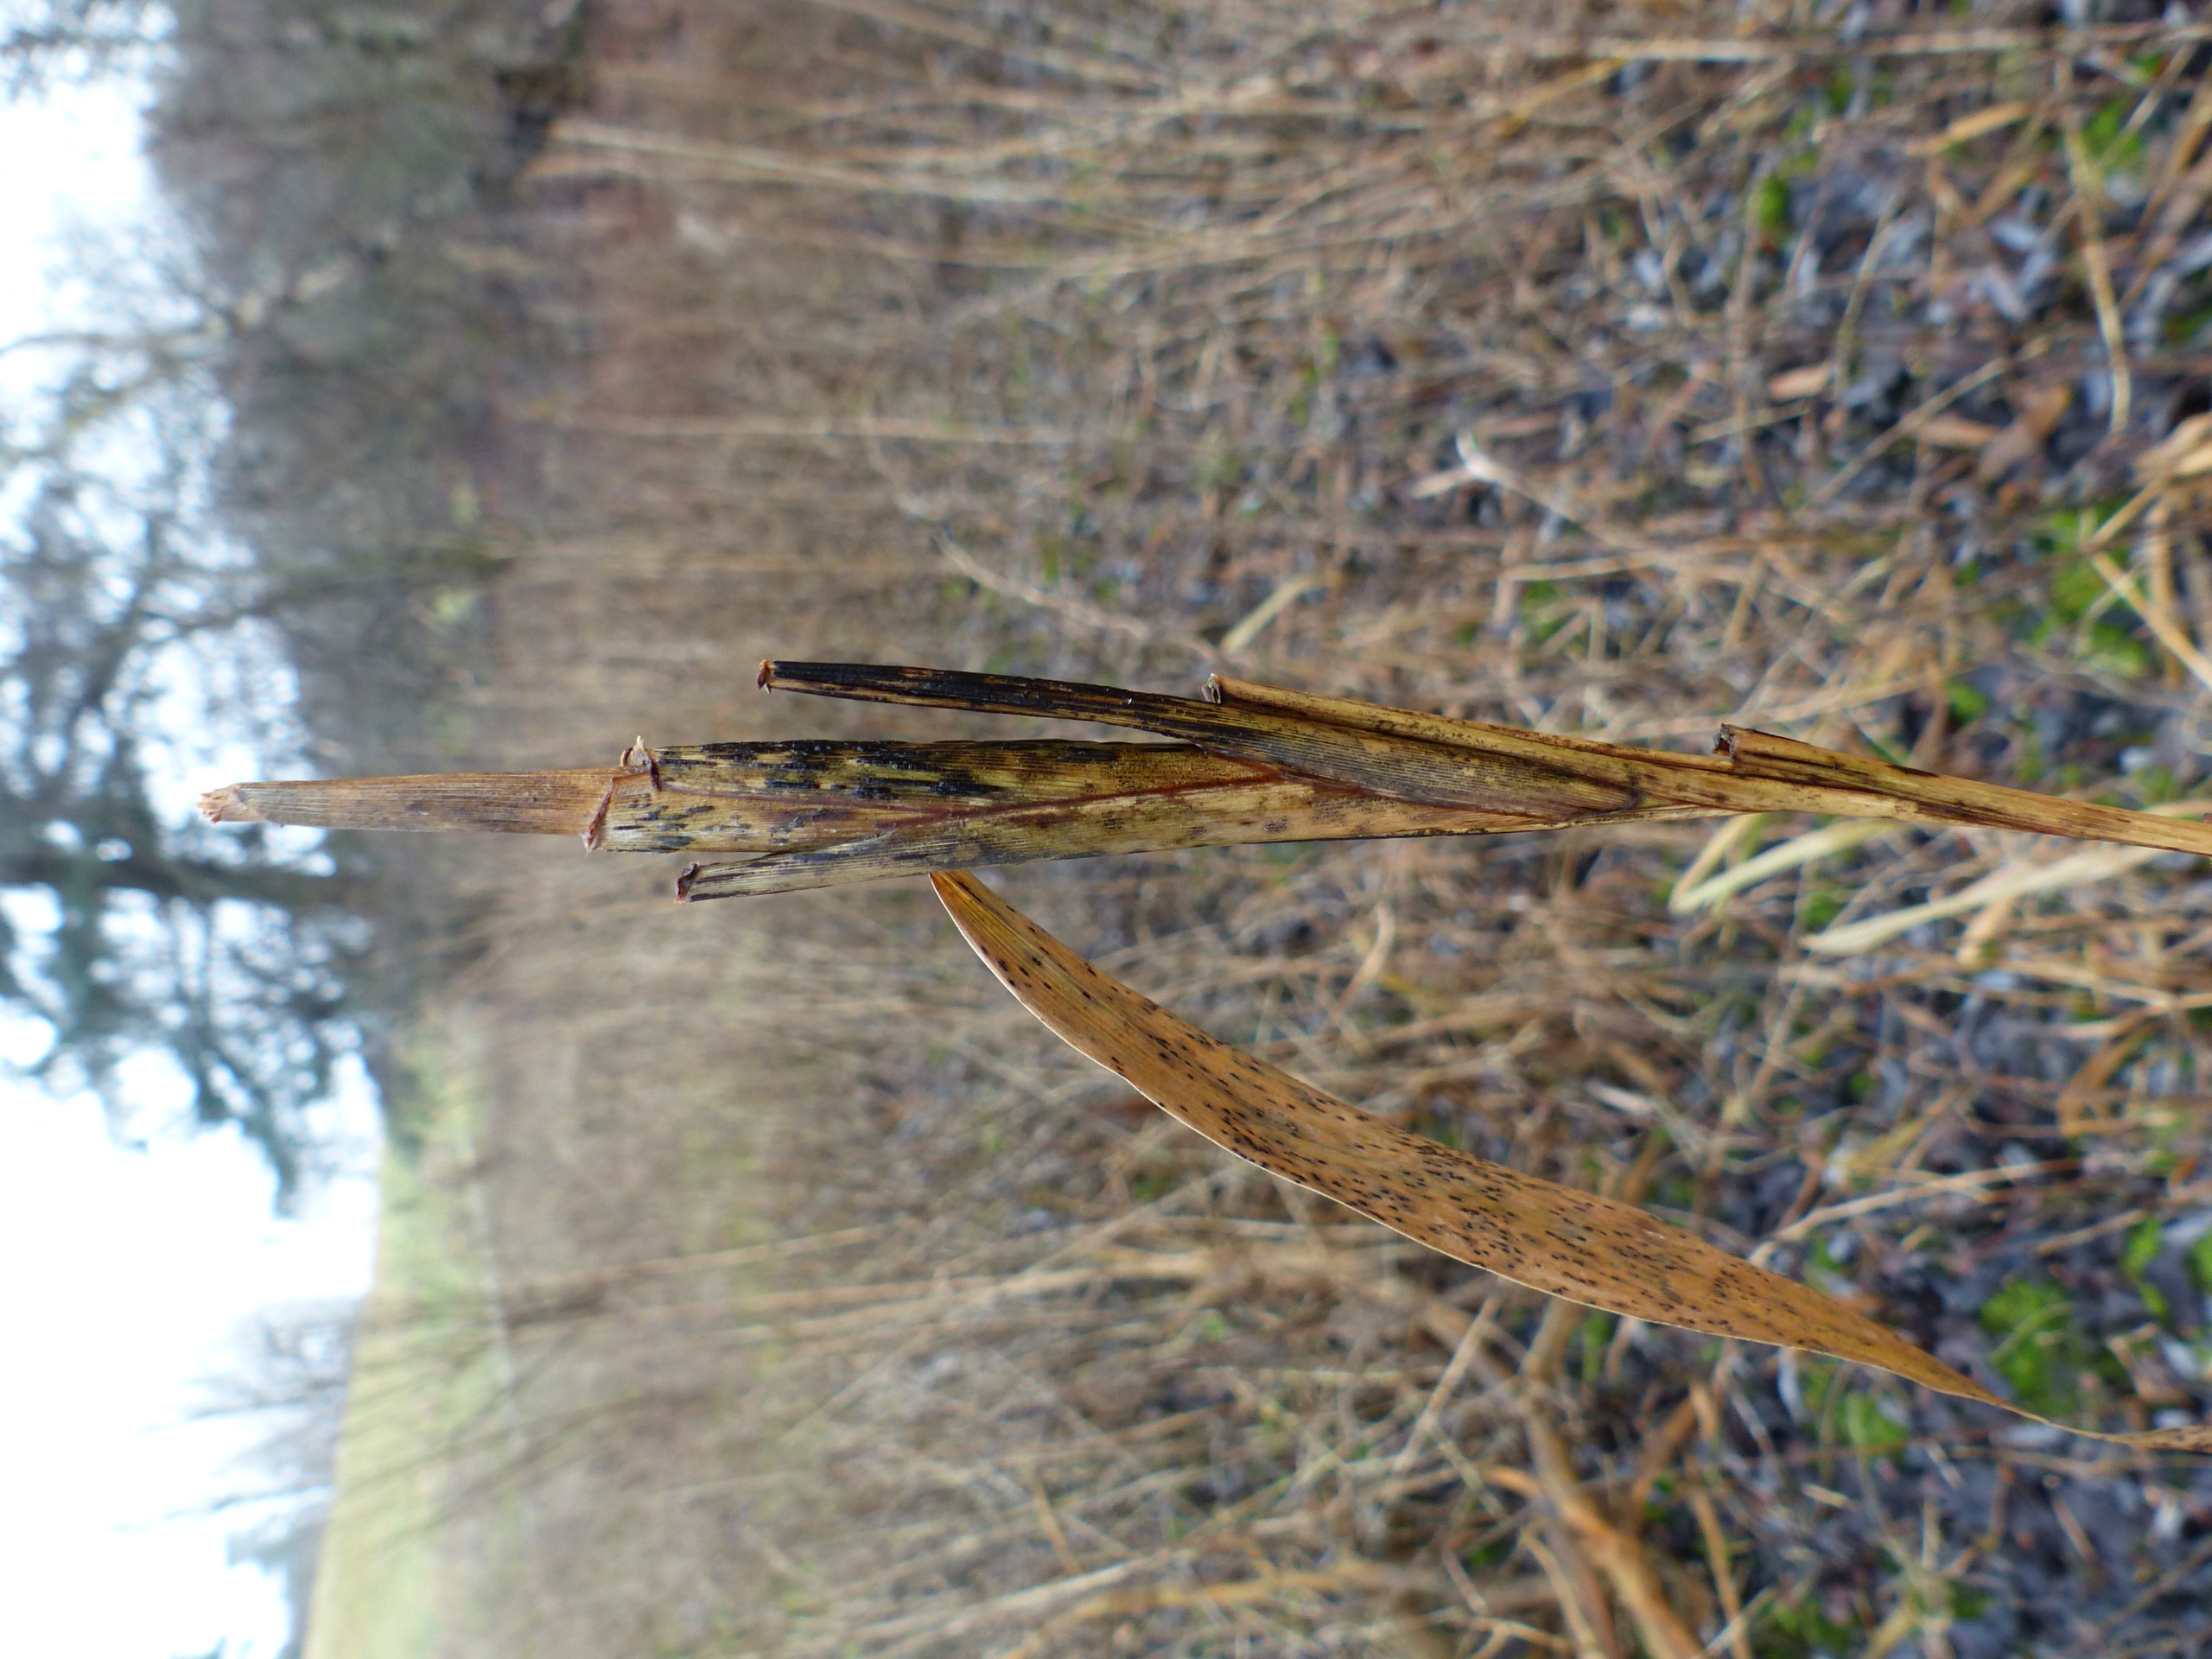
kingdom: Animalia
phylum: Arthropoda
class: Insecta
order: Diptera
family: Chloropidae
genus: Lipara
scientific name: Lipara lucens
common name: Stor cigargalle-fritflue
